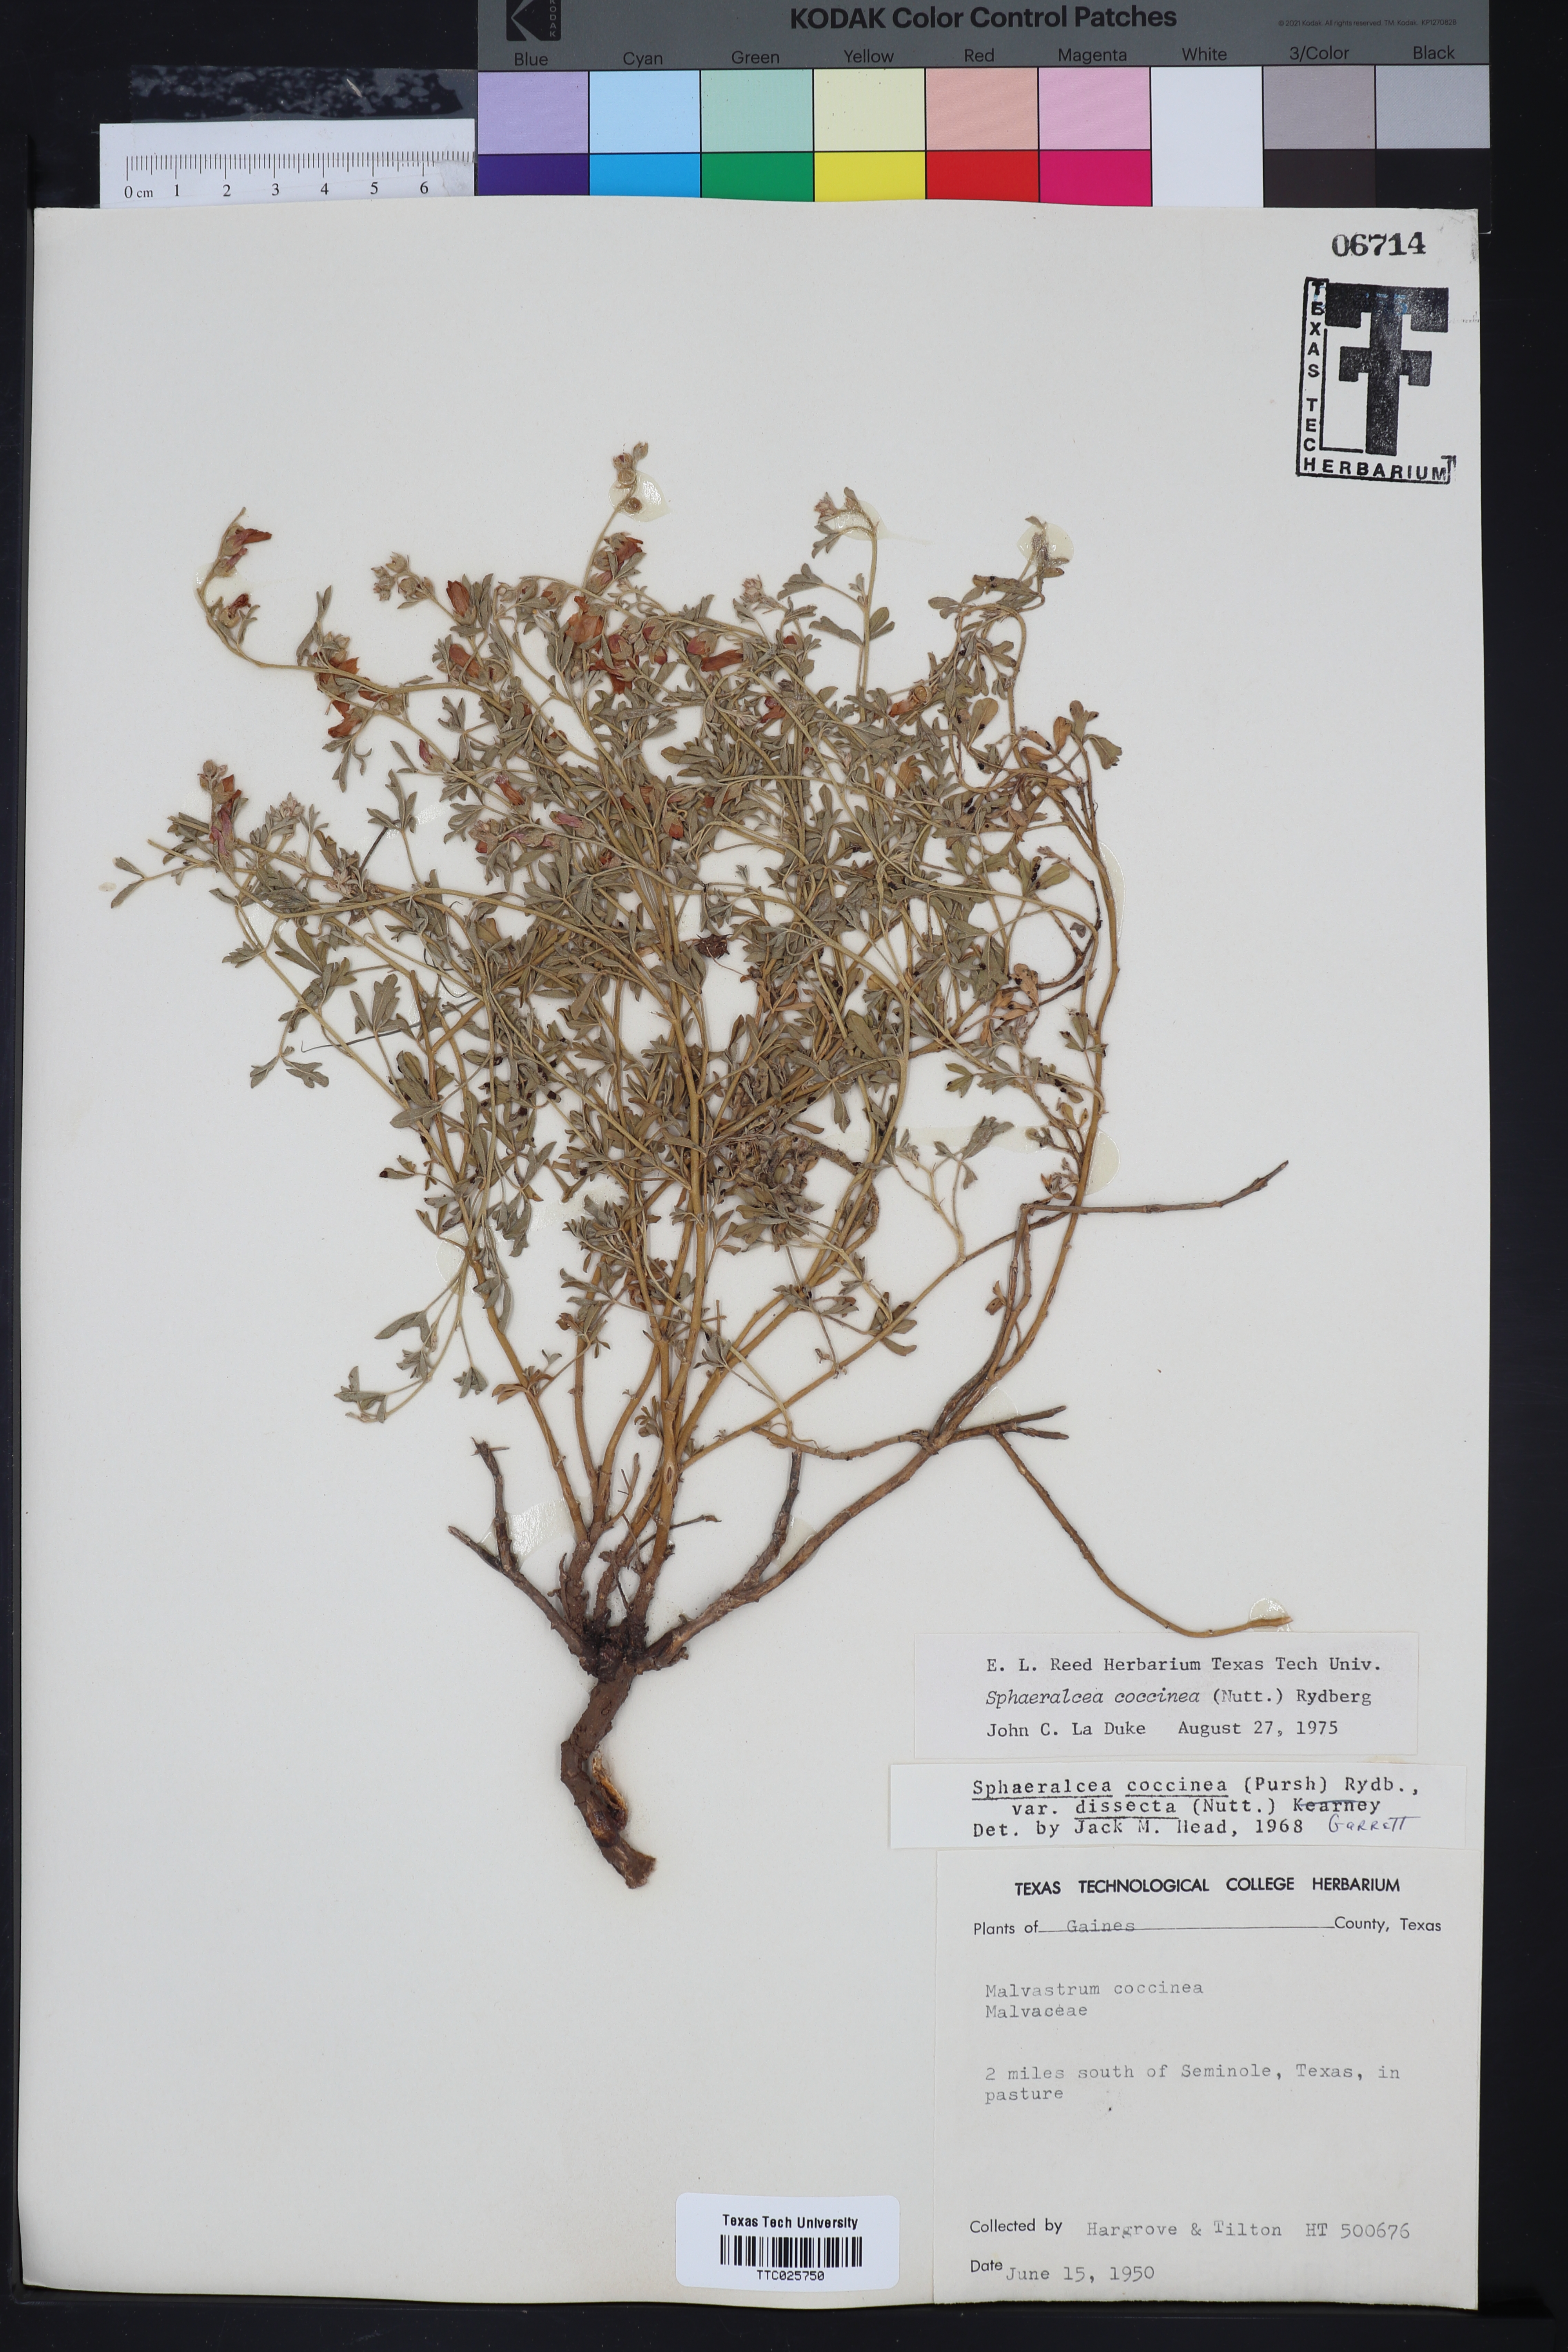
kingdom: Plantae
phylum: Tracheophyta
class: Magnoliopsida
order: Malvales
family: Malvaceae
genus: Sphaeralcea
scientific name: Sphaeralcea coccinea
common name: Moss-rose
